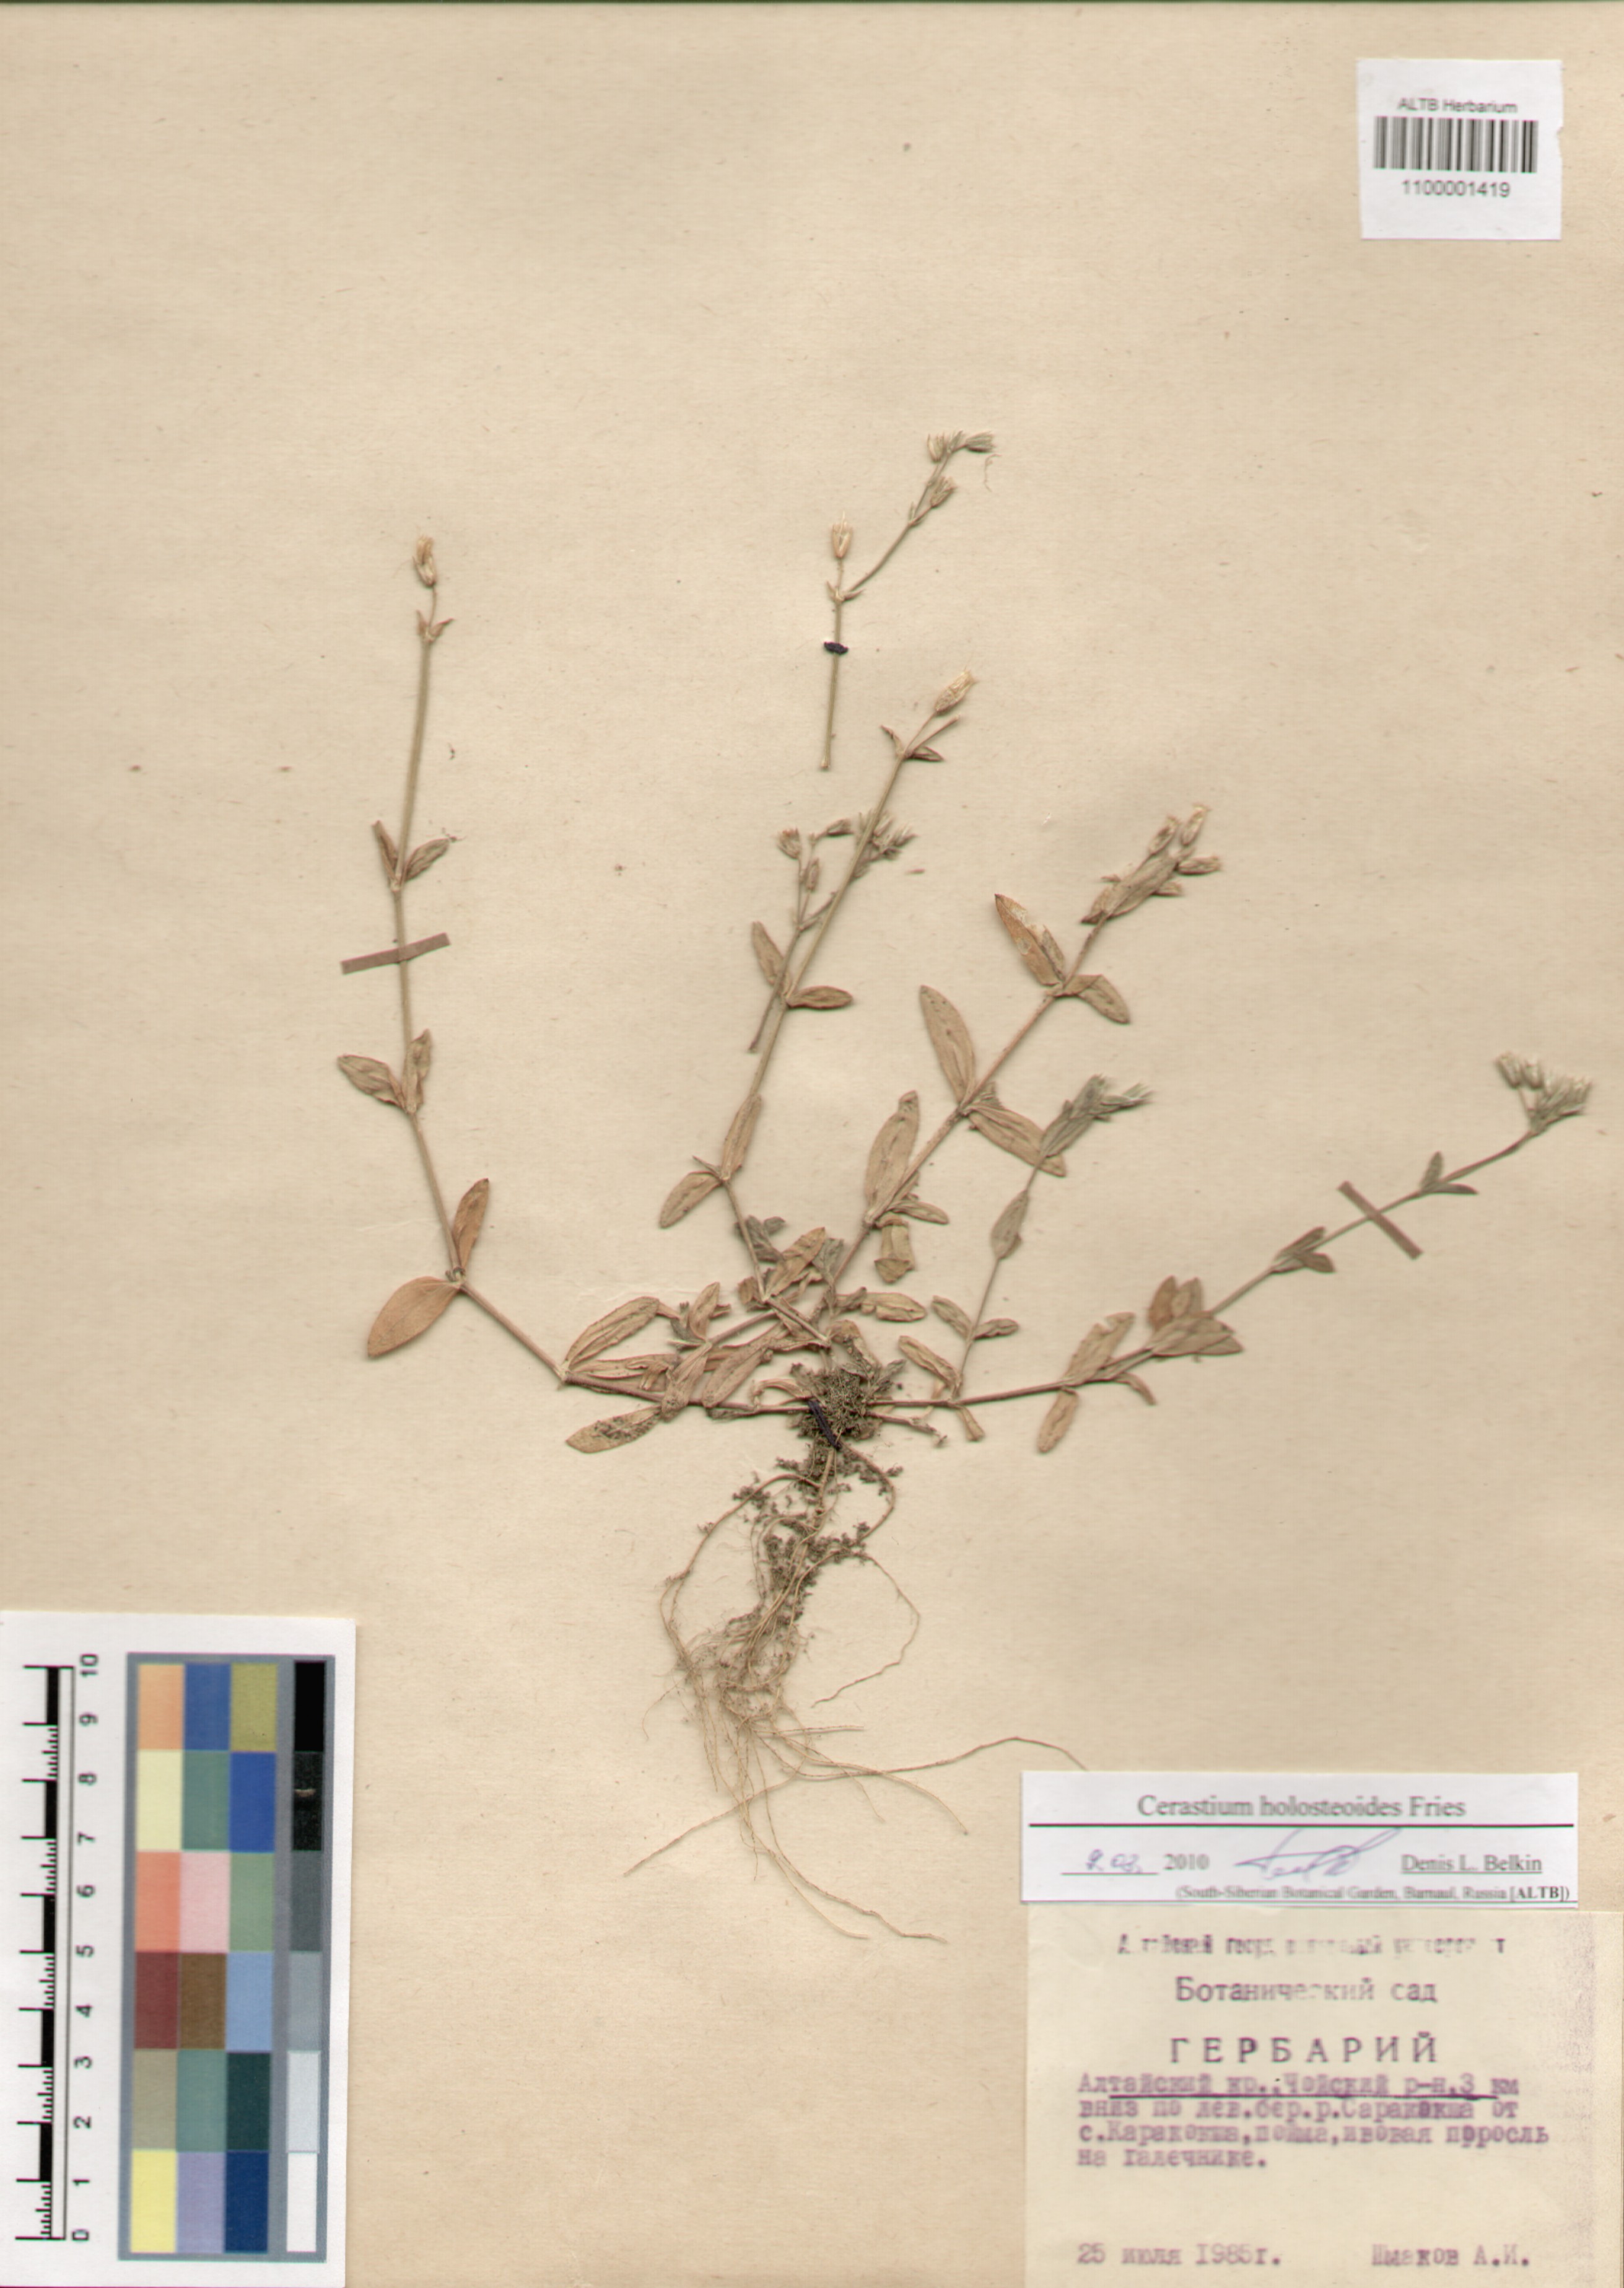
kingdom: Plantae
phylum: Tracheophyta
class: Magnoliopsida
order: Caryophyllales
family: Caryophyllaceae
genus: Cerastium
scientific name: Cerastium holosteoides
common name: Big chickweed
